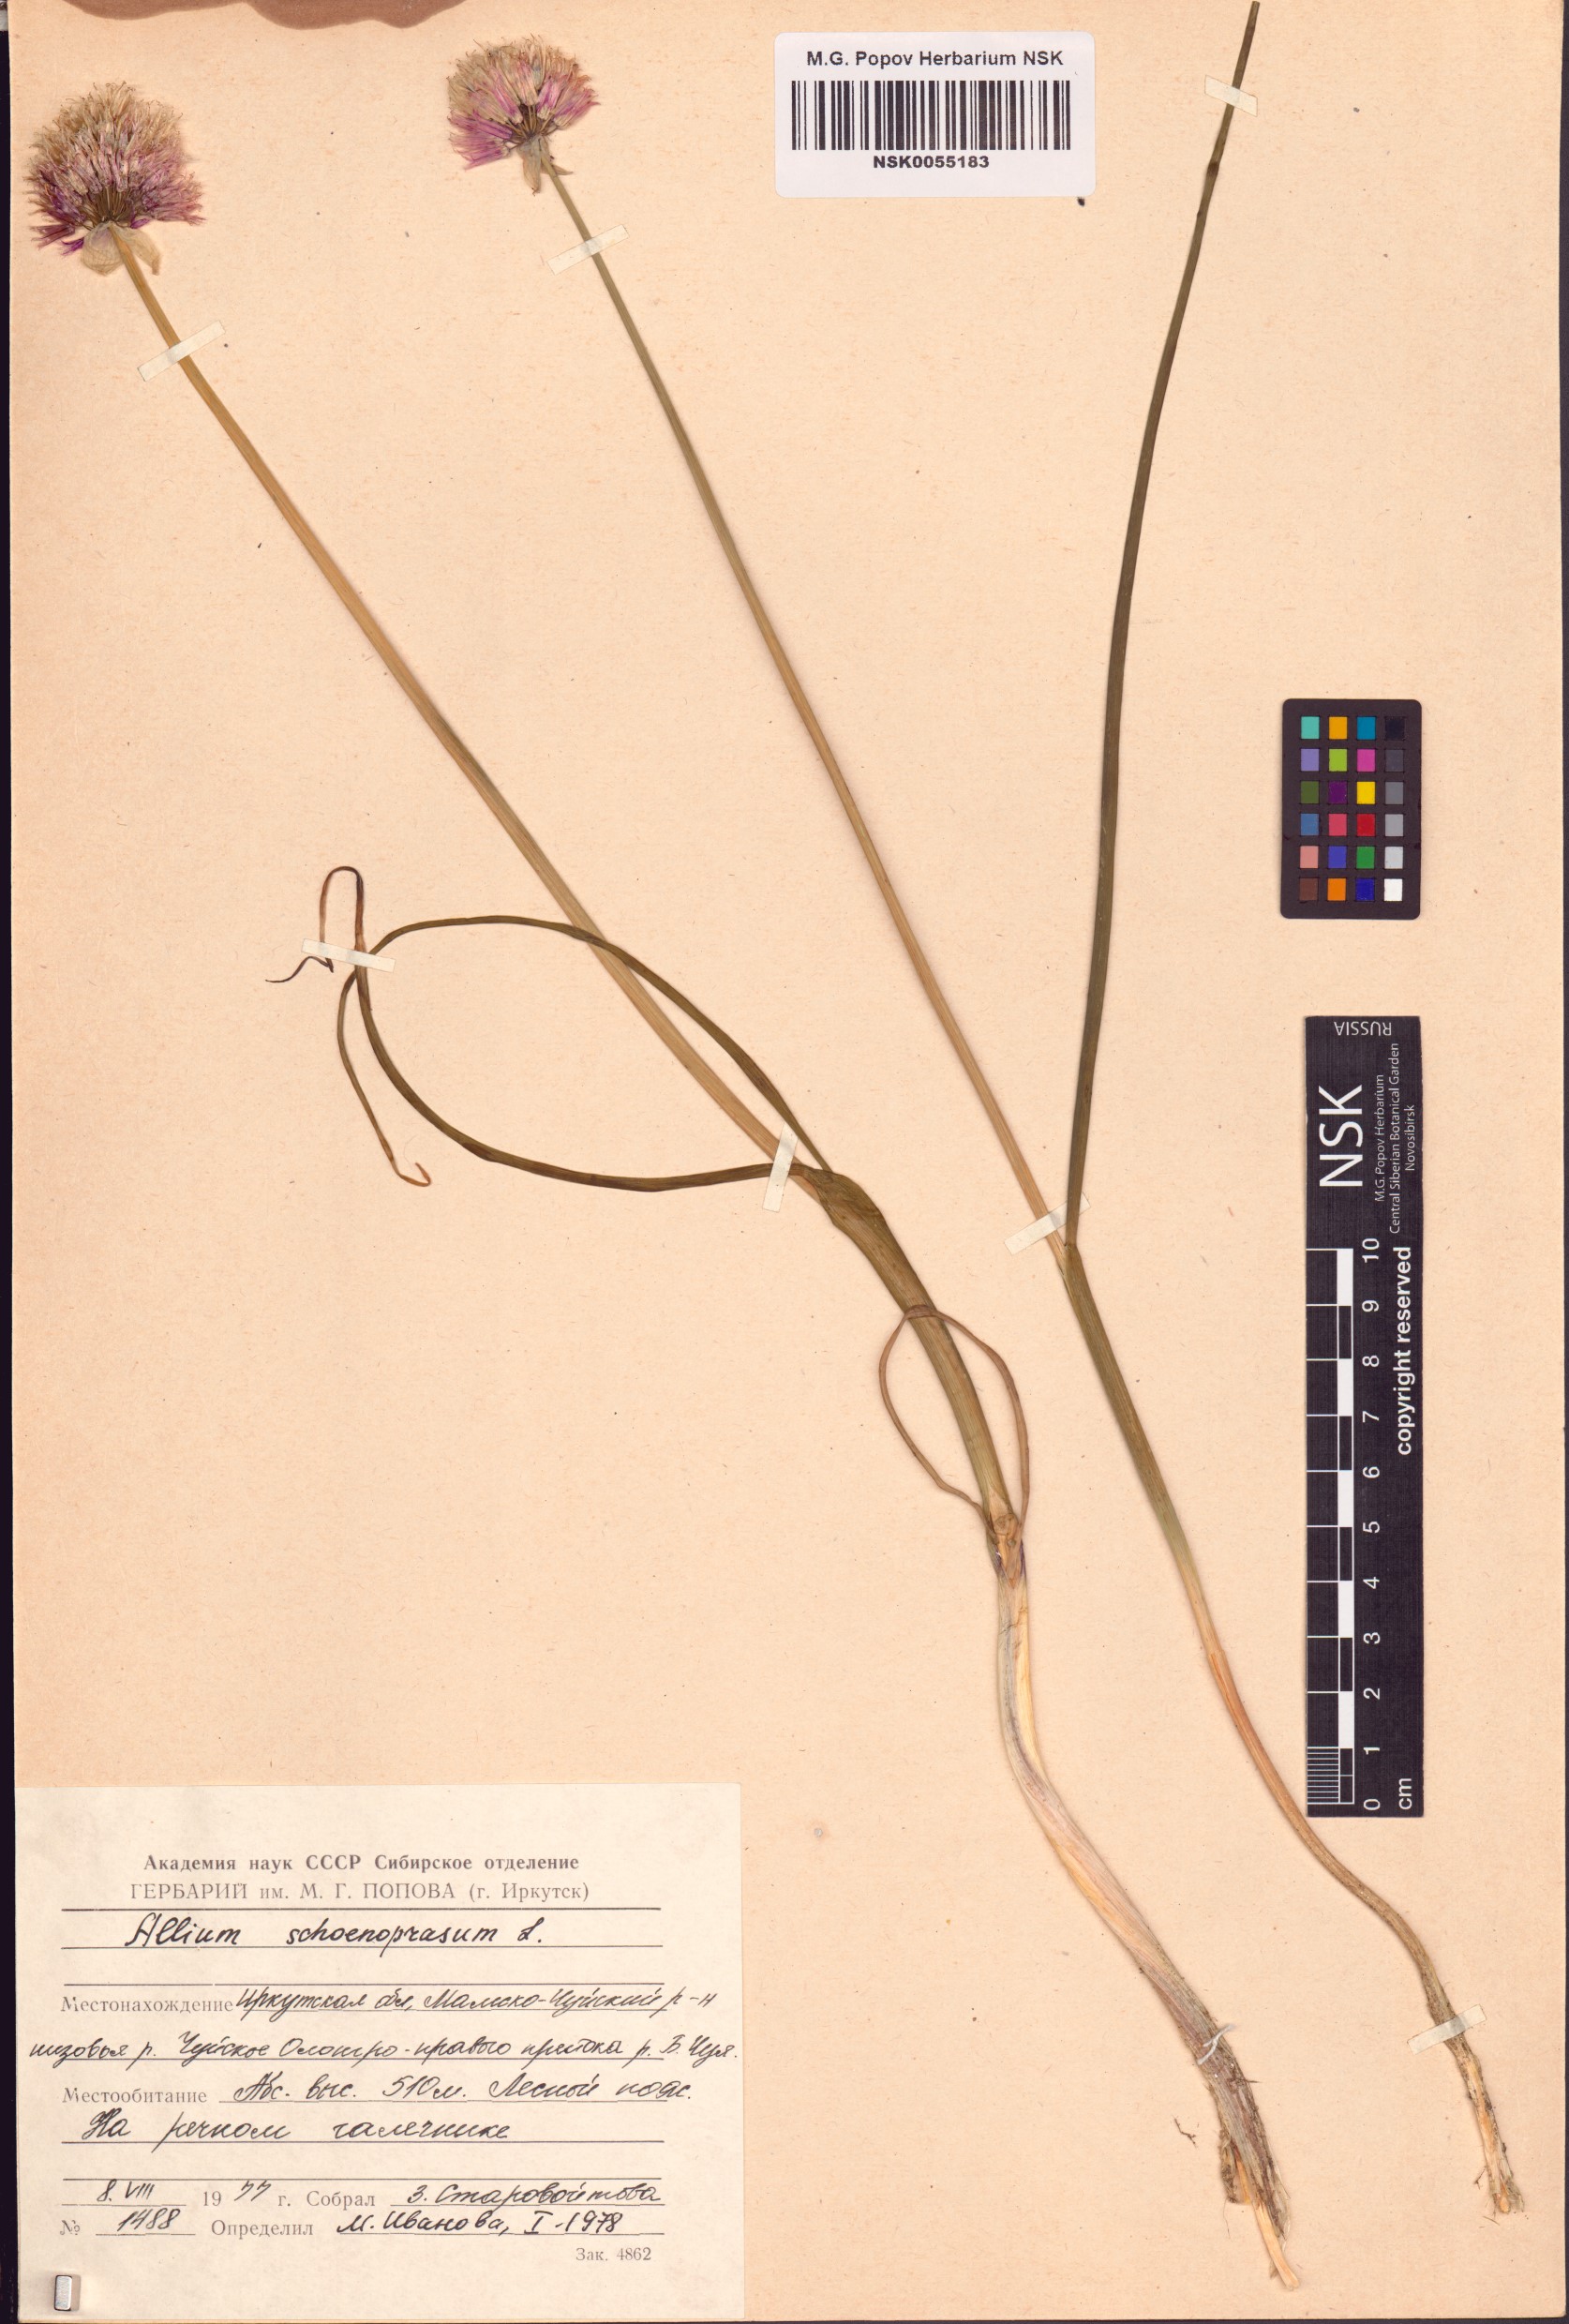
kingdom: Plantae
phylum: Tracheophyta
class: Liliopsida
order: Asparagales
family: Amaryllidaceae
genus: Allium
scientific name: Allium schoenoprasum
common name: Chives
